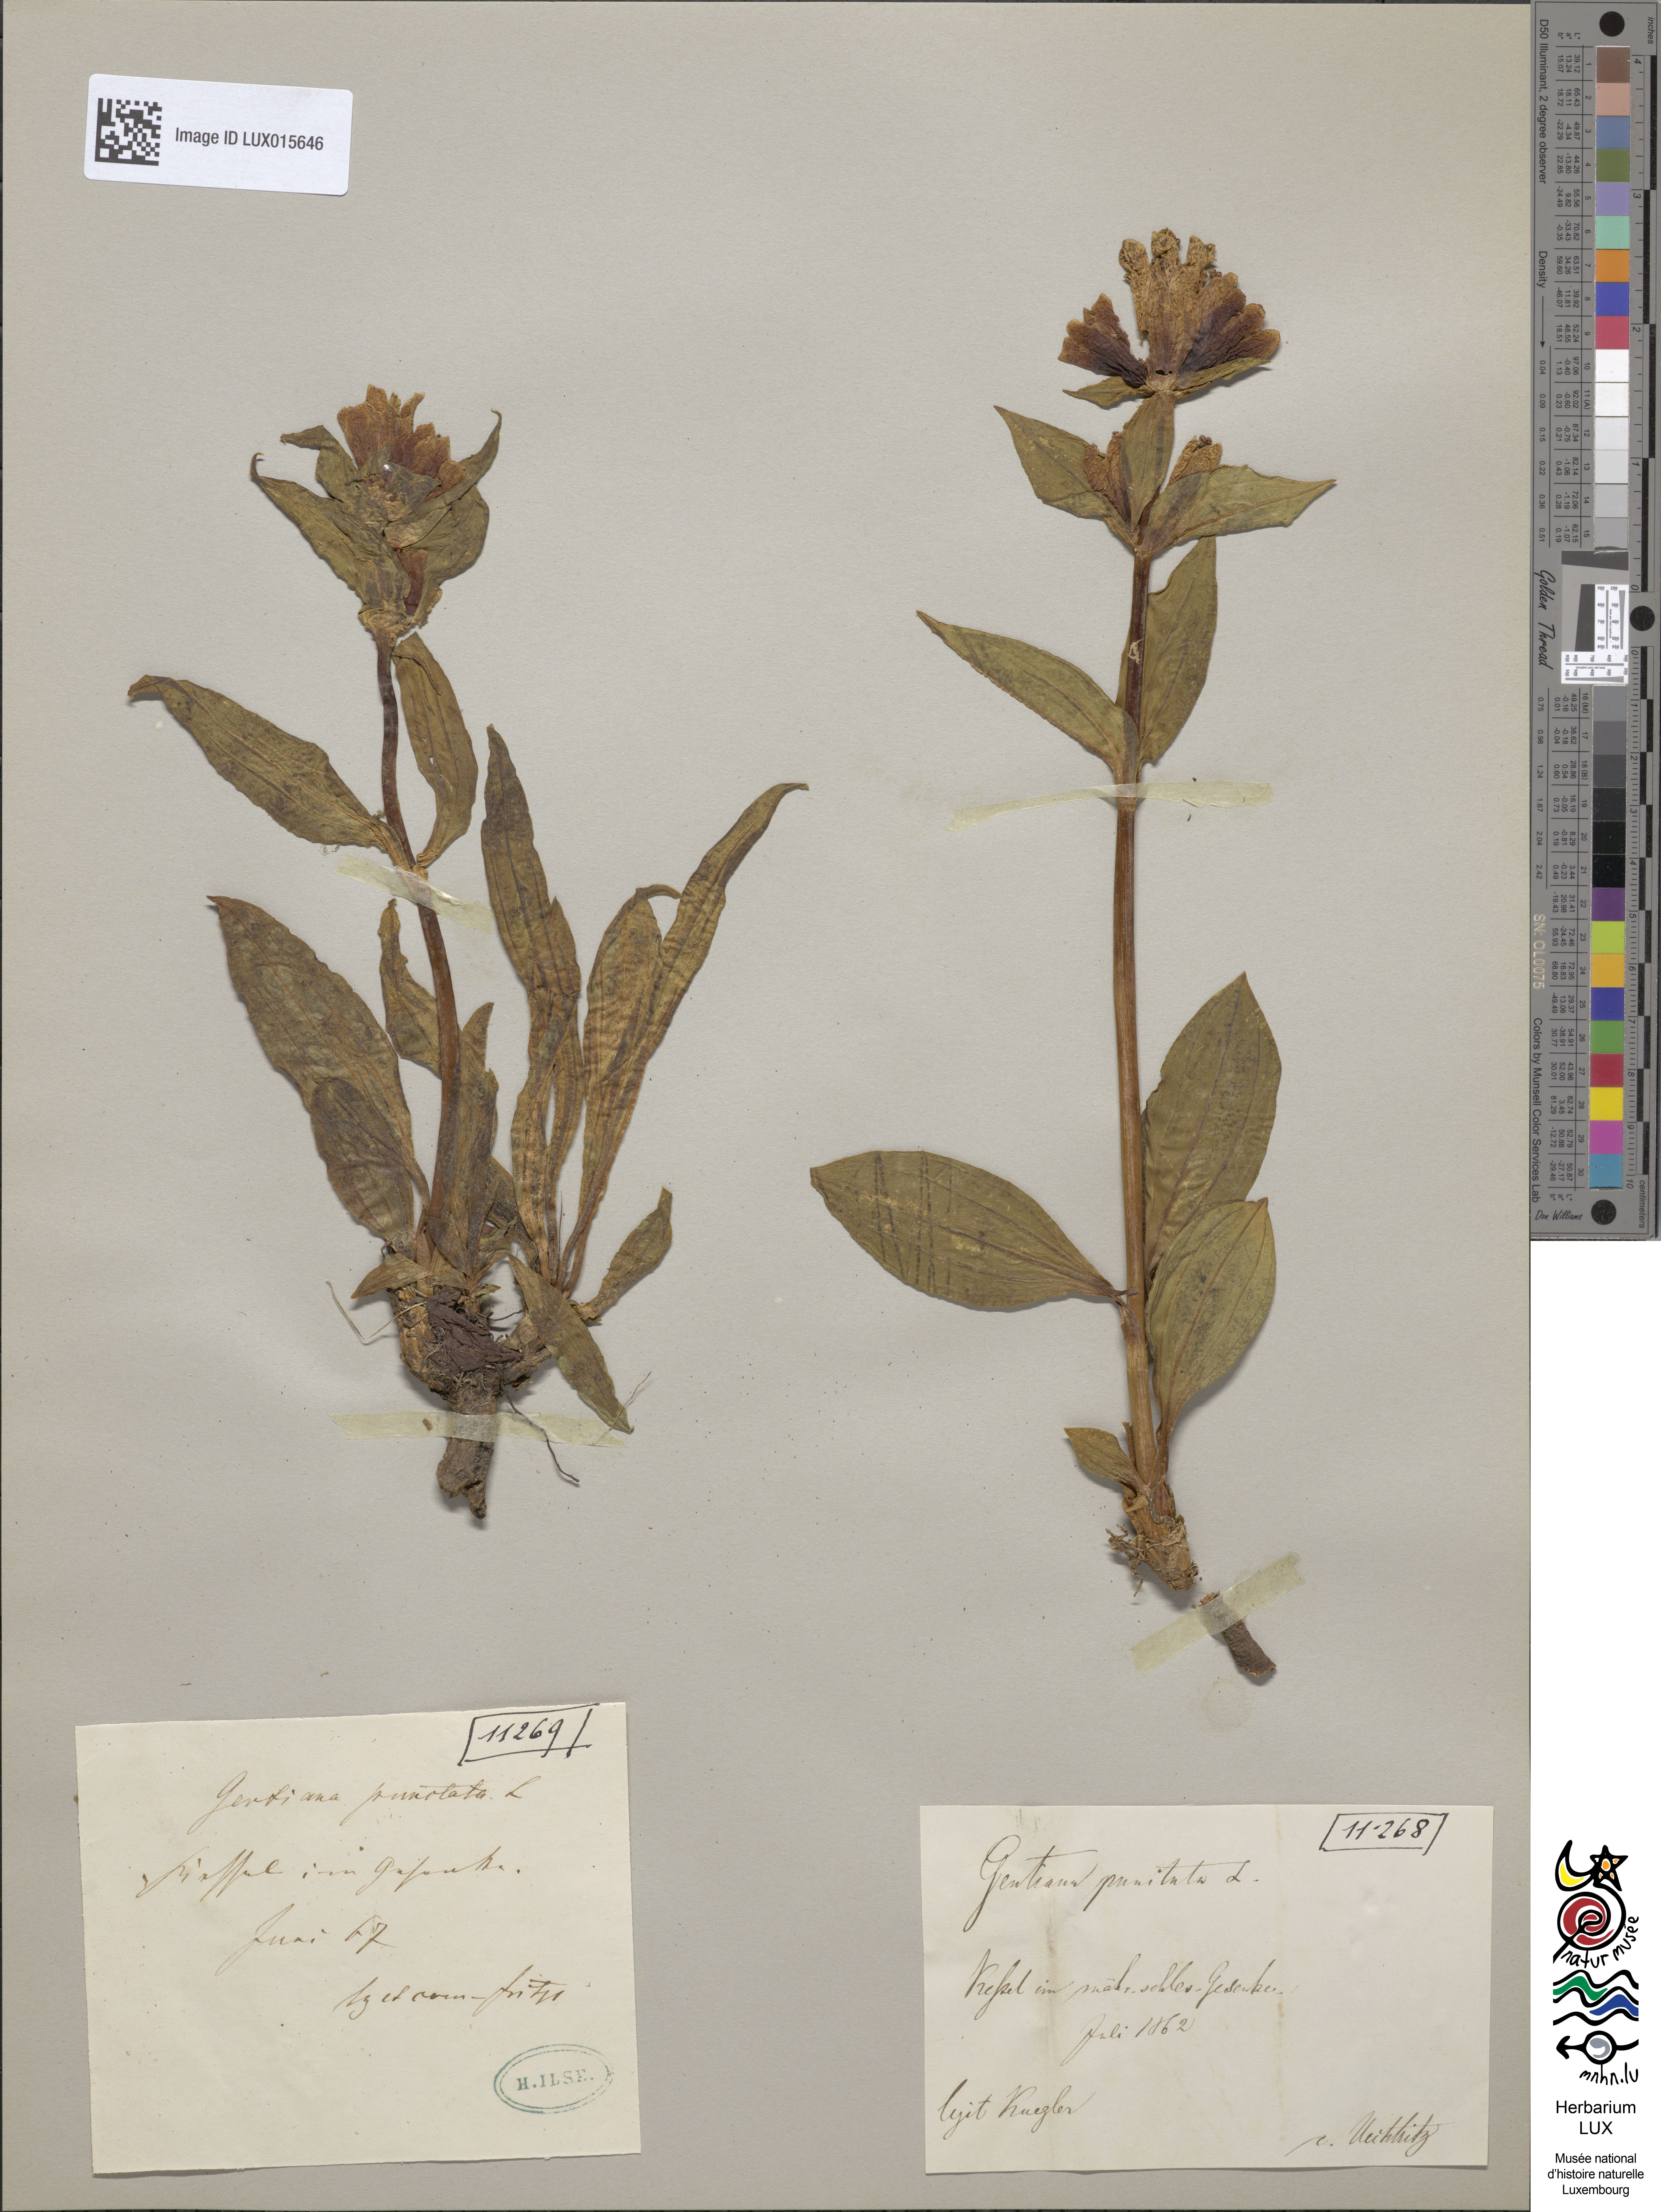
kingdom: Plantae
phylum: Tracheophyta
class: Magnoliopsida
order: Gentianales
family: Gentianaceae
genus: Gentiana
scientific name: Gentiana punctata
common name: Spotted gentian
